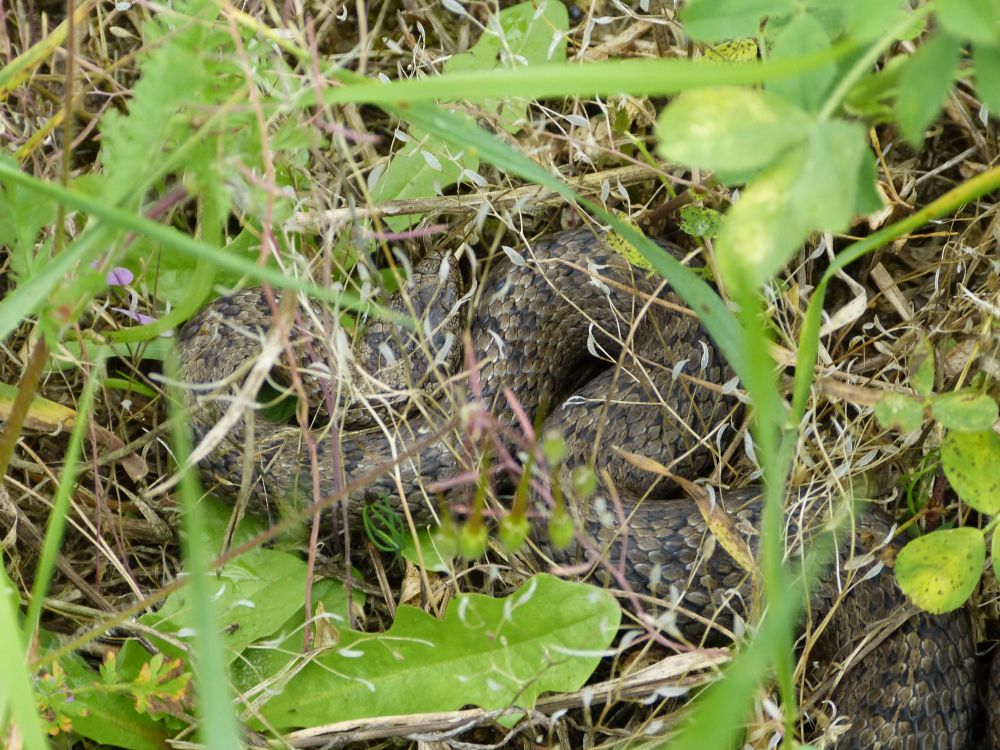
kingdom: Animalia
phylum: Chordata
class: Squamata
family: Colubridae
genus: Coronella
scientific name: Coronella austriaca
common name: Smooth snake
